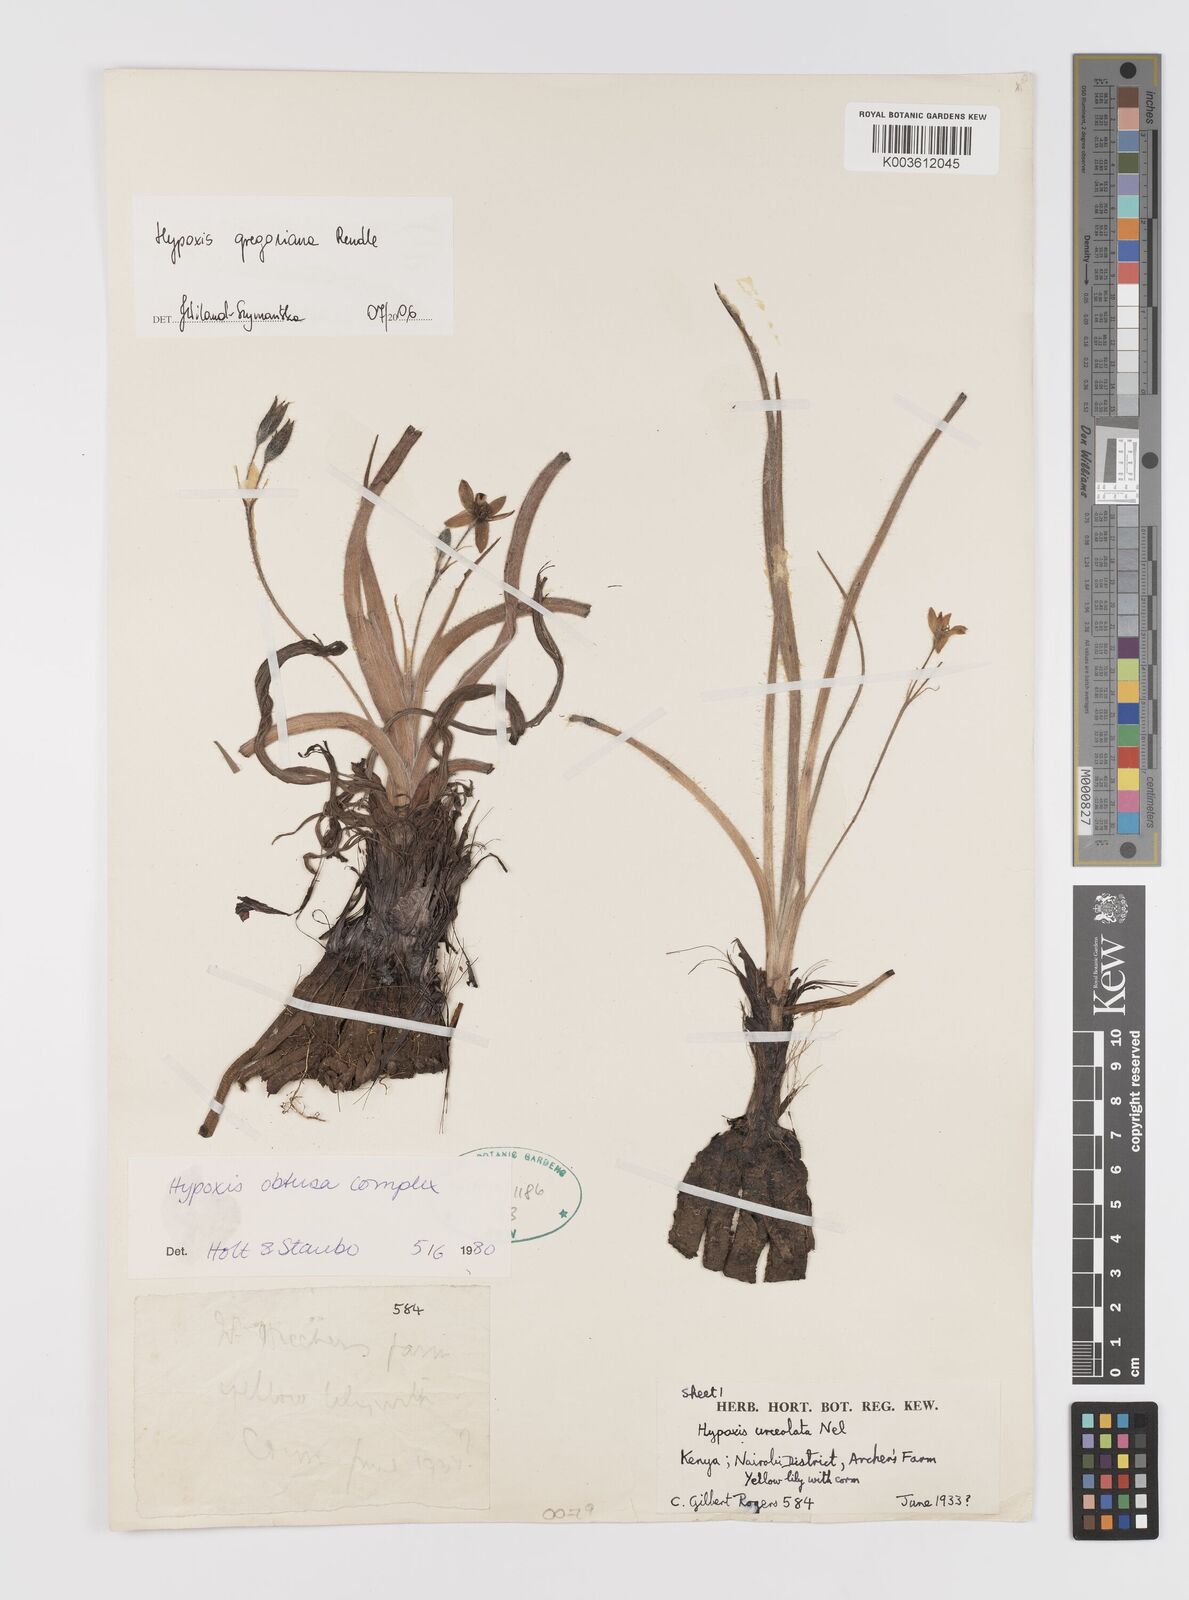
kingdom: Plantae
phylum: Tracheophyta
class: Liliopsida
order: Asparagales
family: Hypoxidaceae
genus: Hypoxis
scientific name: Hypoxis gregoriana
